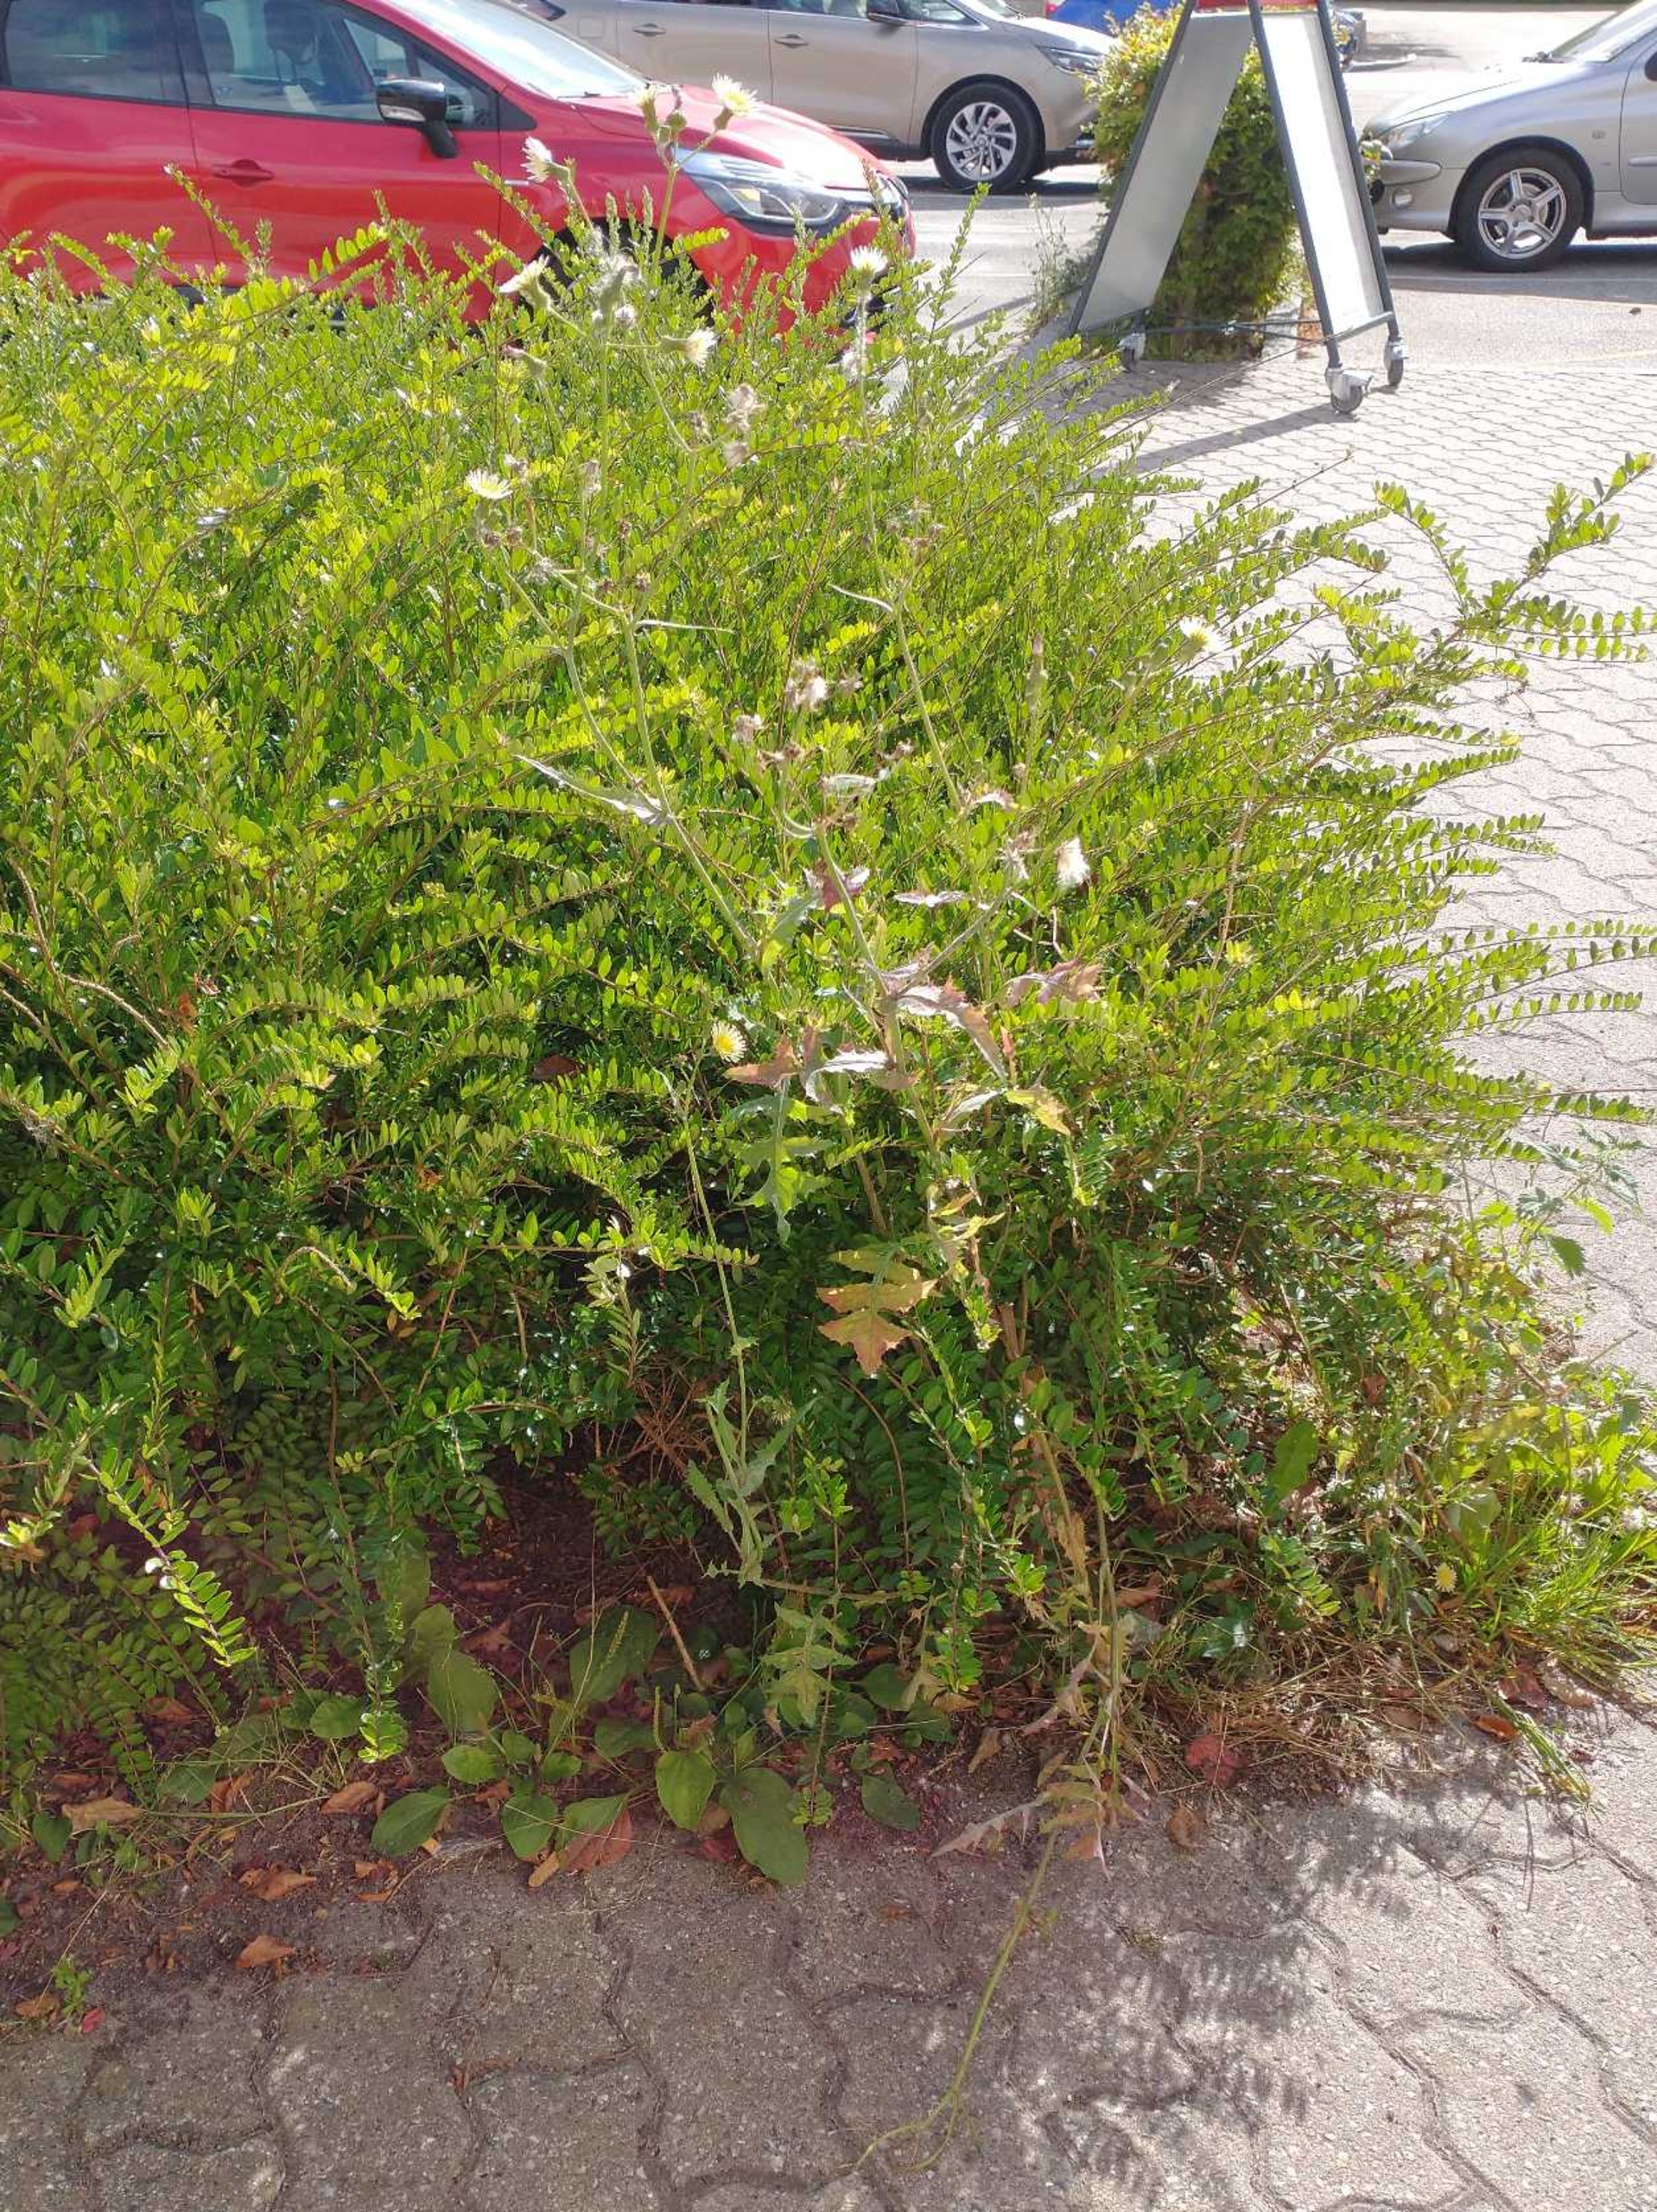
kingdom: Plantae
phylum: Tracheophyta
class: Magnoliopsida
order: Asterales
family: Asteraceae
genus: Sonchus
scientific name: Sonchus oleraceus
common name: Almindelig svinemælk
